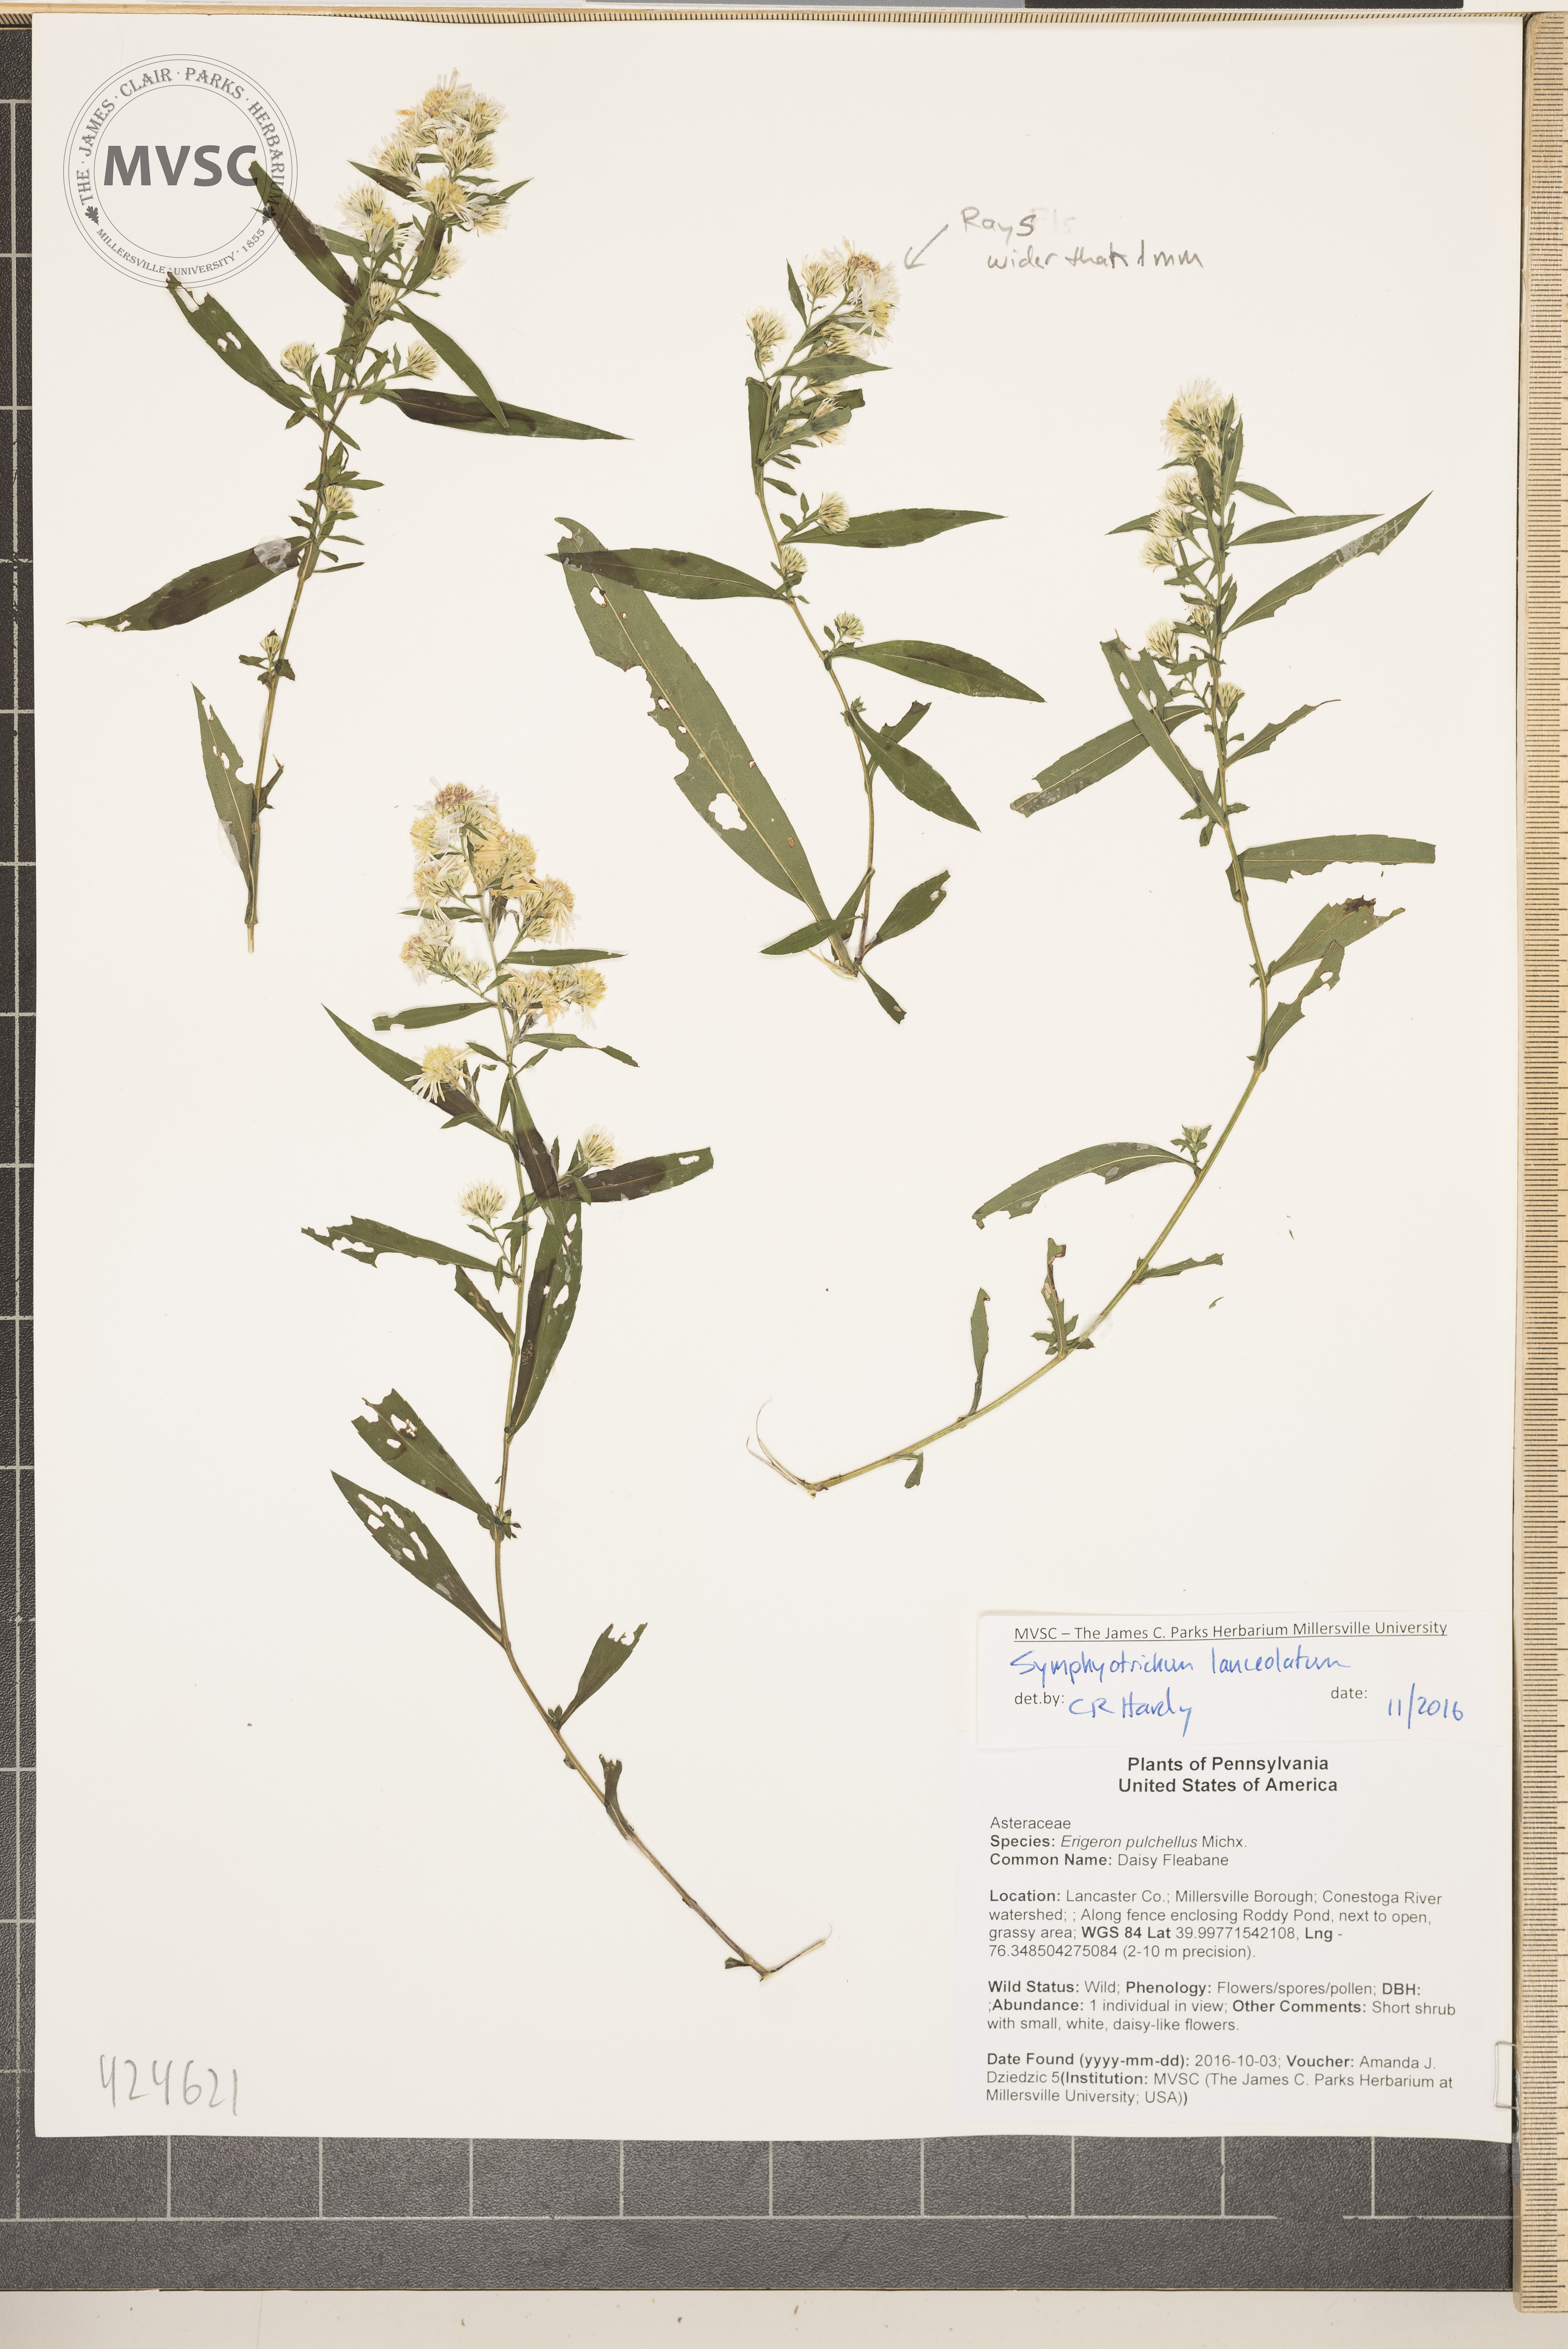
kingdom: Plantae
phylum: Tracheophyta
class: Magnoliopsida
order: Asterales
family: Asteraceae
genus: Symphyotrichum
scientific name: Symphyotrichum lanceolatum
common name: Aster
